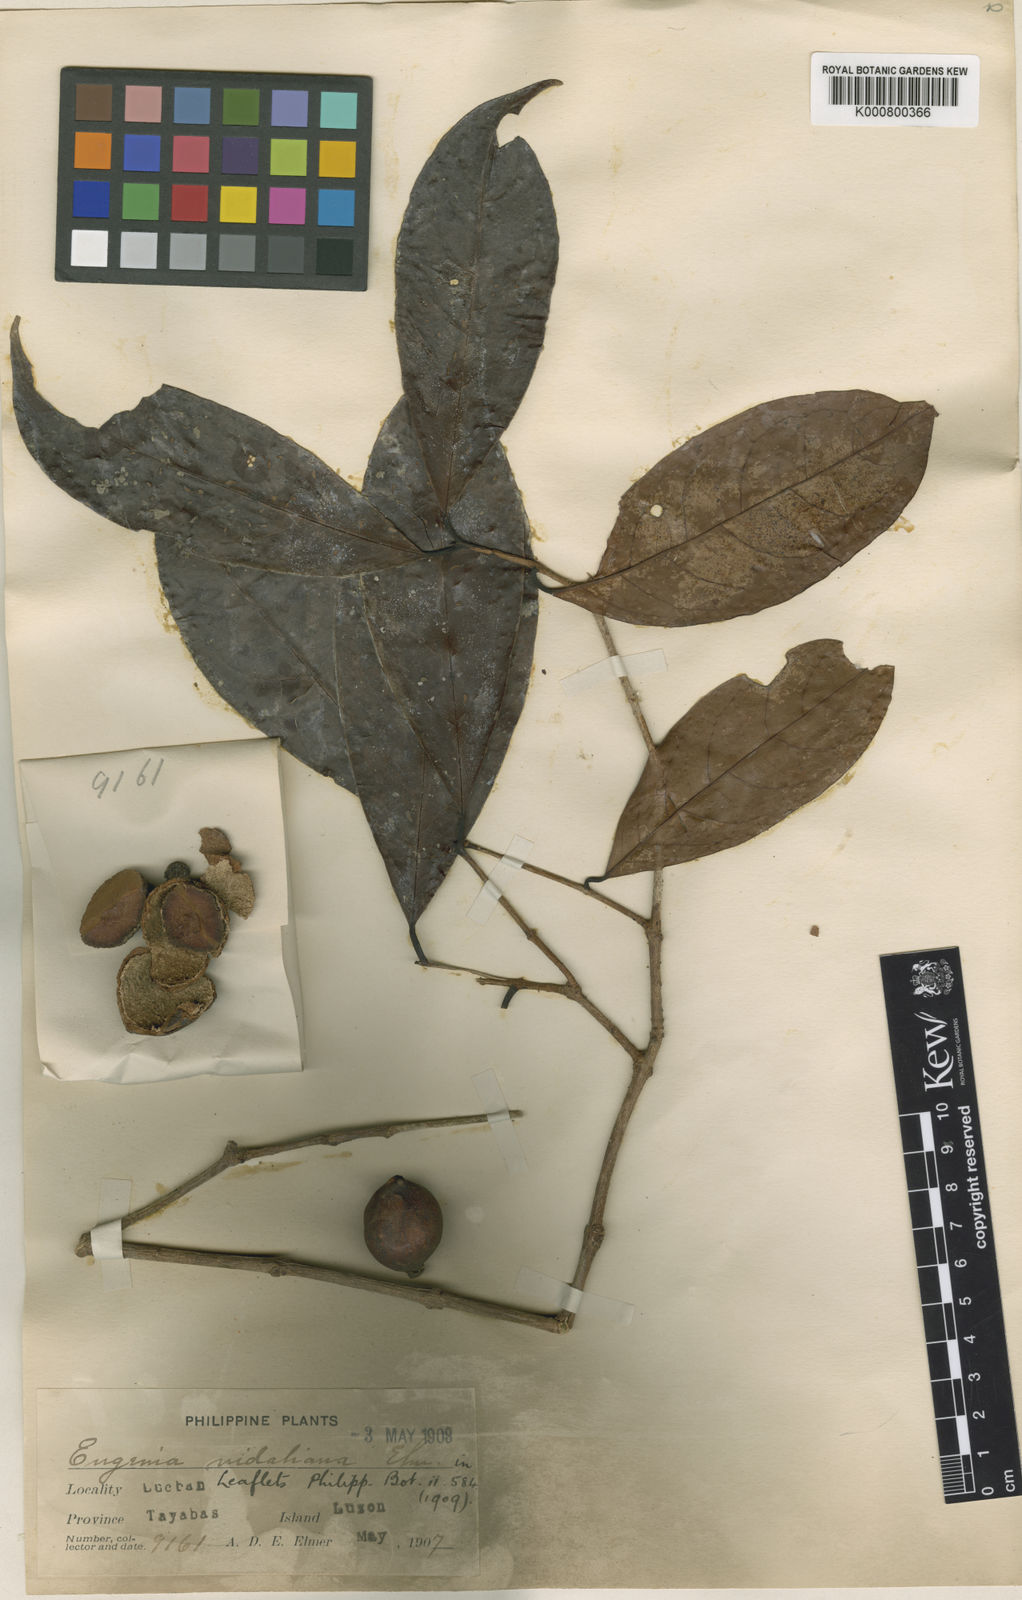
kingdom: Plantae
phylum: Tracheophyta
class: Magnoliopsida
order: Myrtales
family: Myrtaceae
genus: Syzygium
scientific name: Syzygium vidalianum
